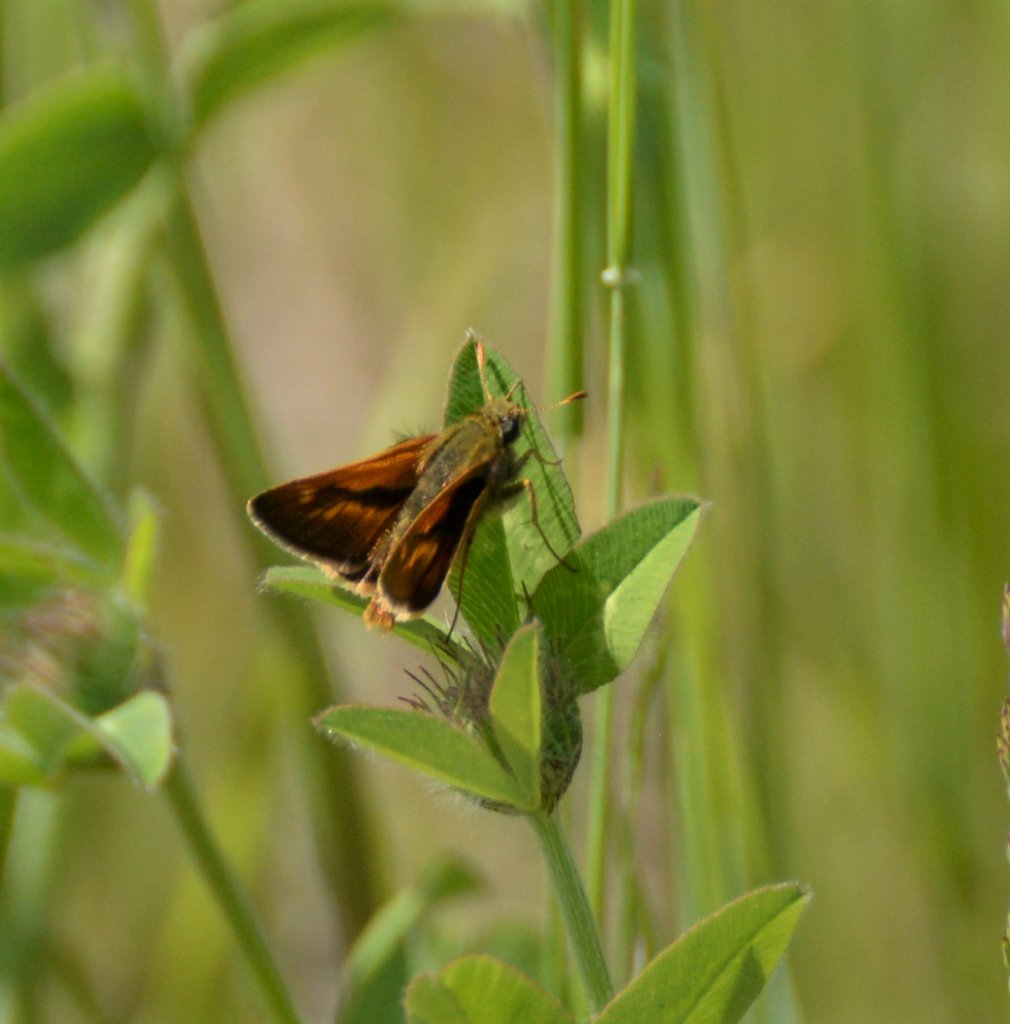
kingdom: Animalia
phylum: Arthropoda
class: Insecta
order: Lepidoptera
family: Hesperiidae
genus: Polites
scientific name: Polites
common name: Long Dash Skipper
